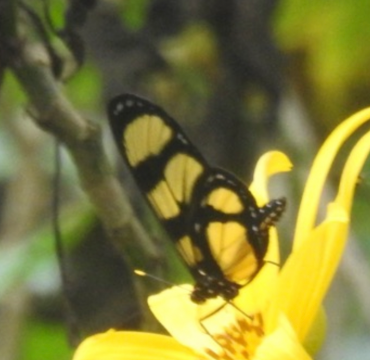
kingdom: Animalia
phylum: Arthropoda
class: Insecta
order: Lepidoptera
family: Nymphalidae
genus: Methona
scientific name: Methona confusa
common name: Confusa Tigerwing
